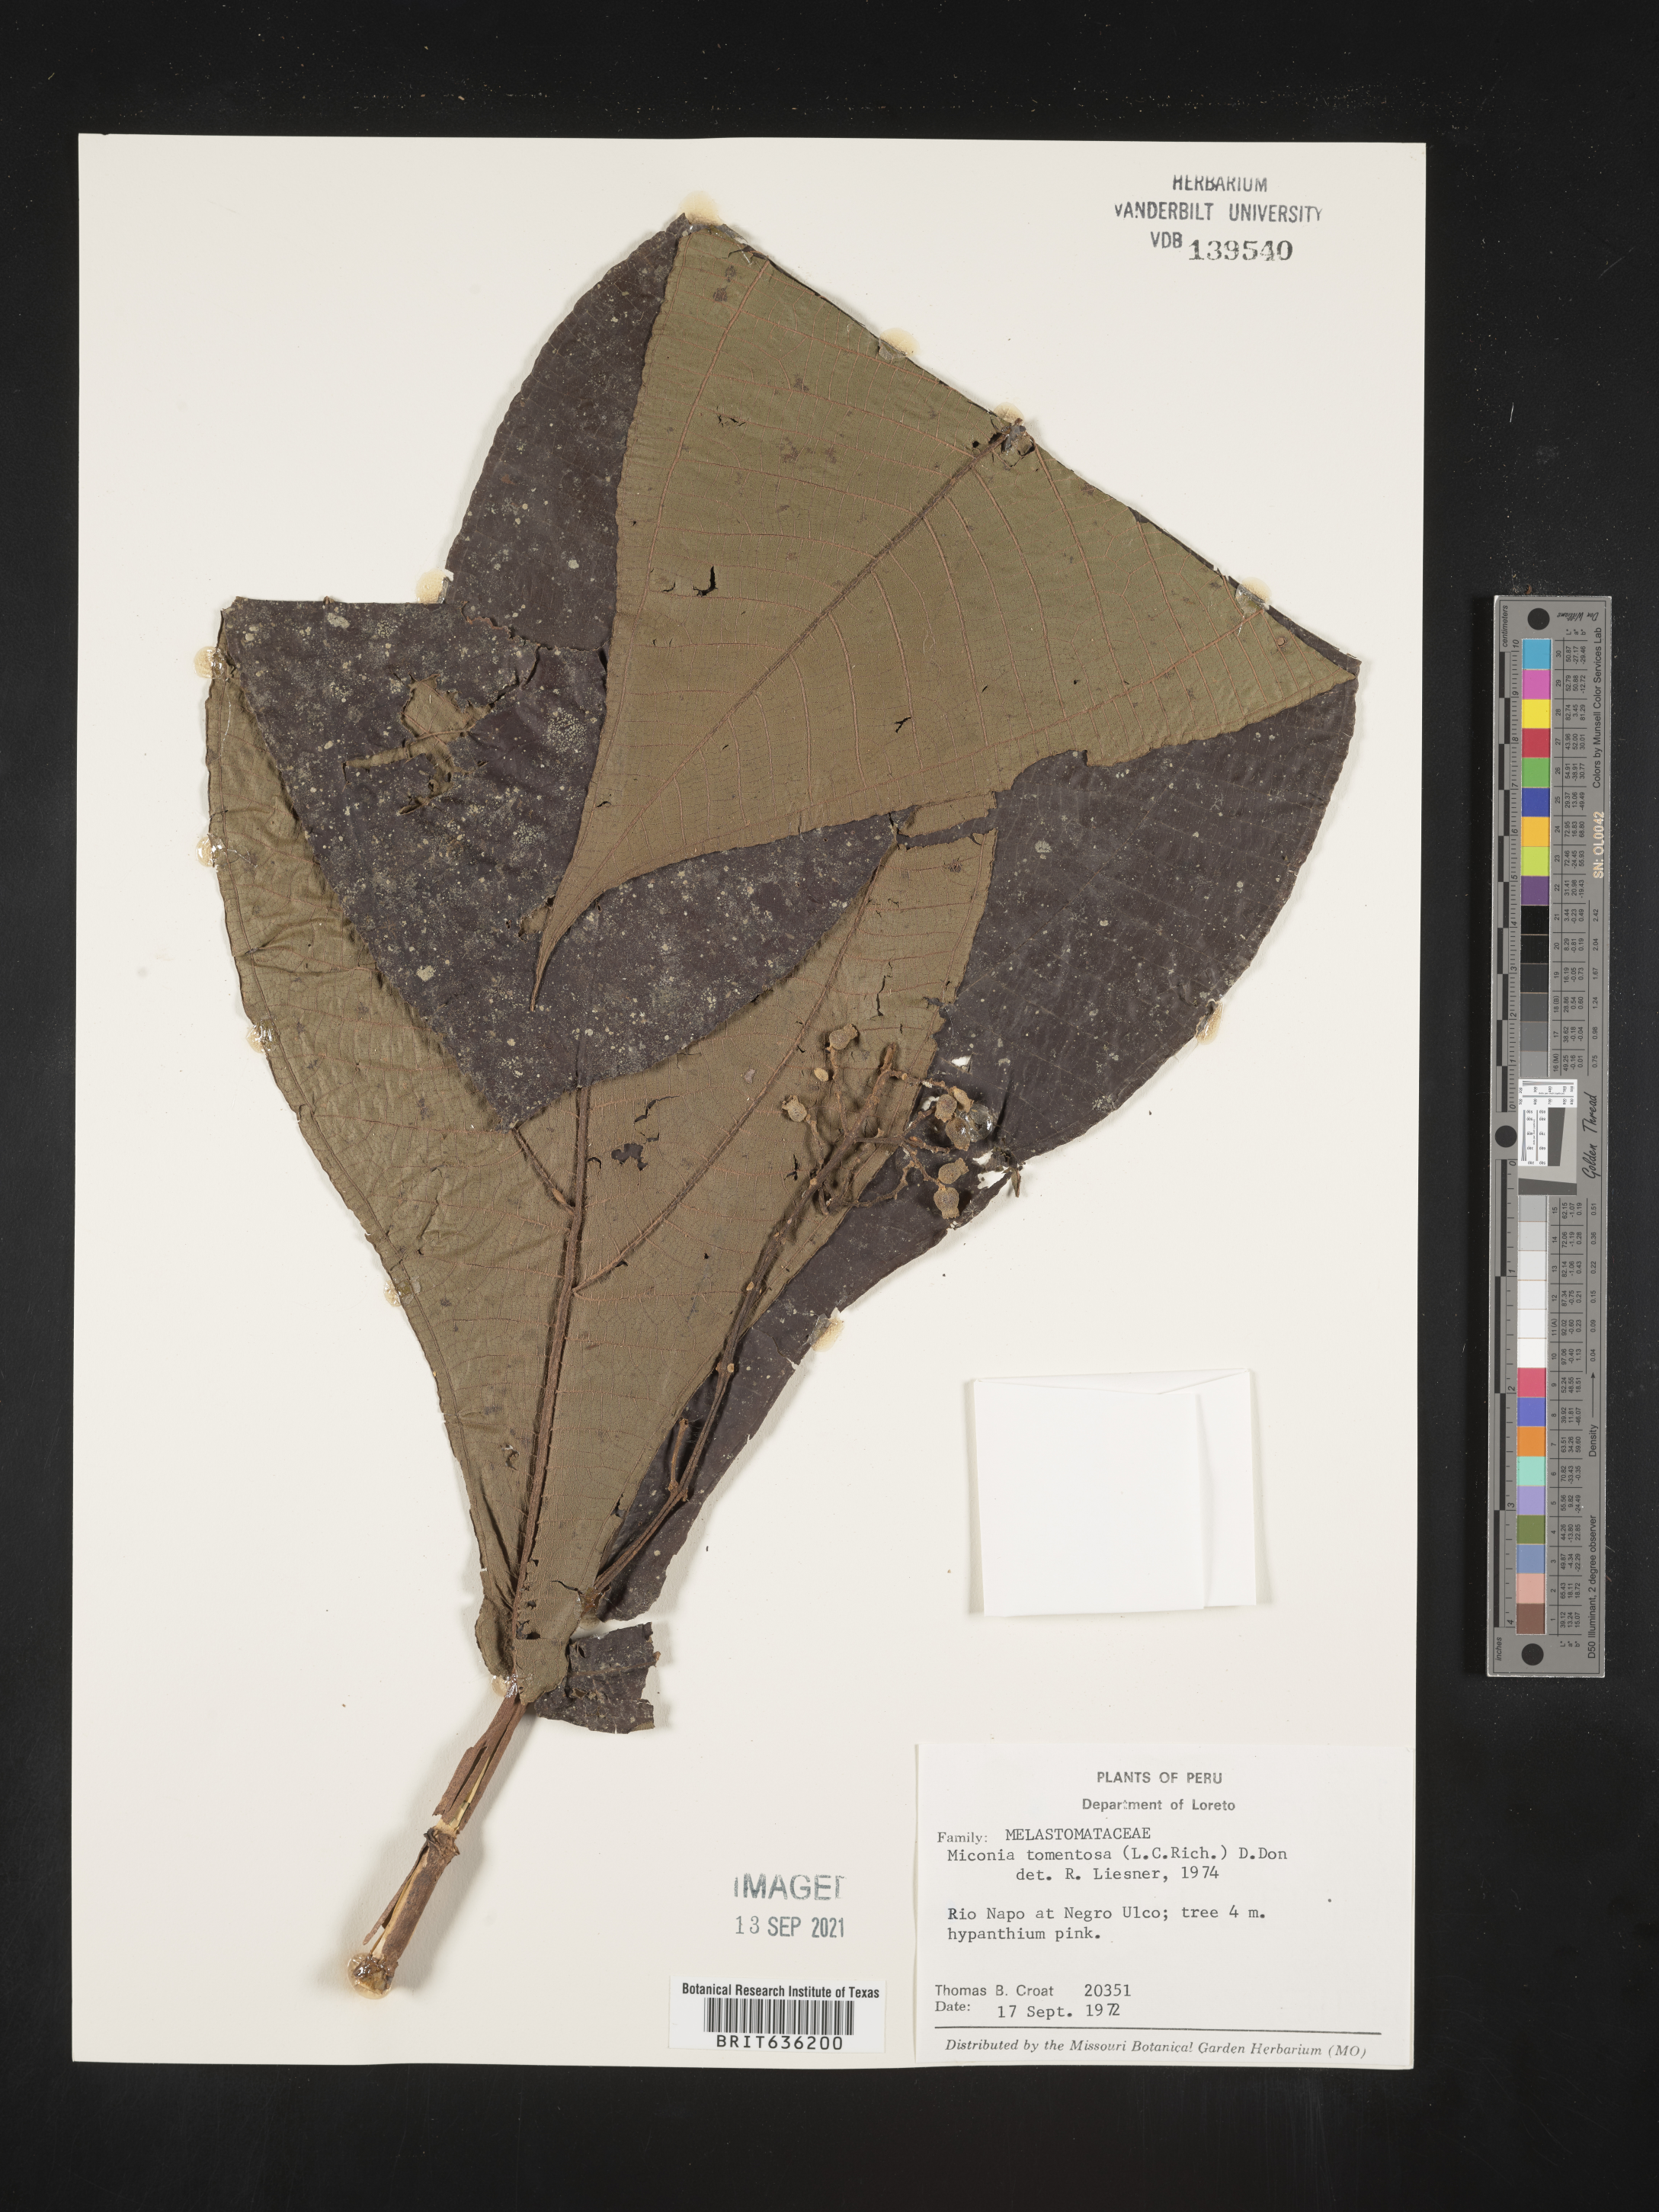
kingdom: Plantae
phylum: Tracheophyta
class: Magnoliopsida
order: Myrtales
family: Melastomataceae
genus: Miconia
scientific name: Miconia
